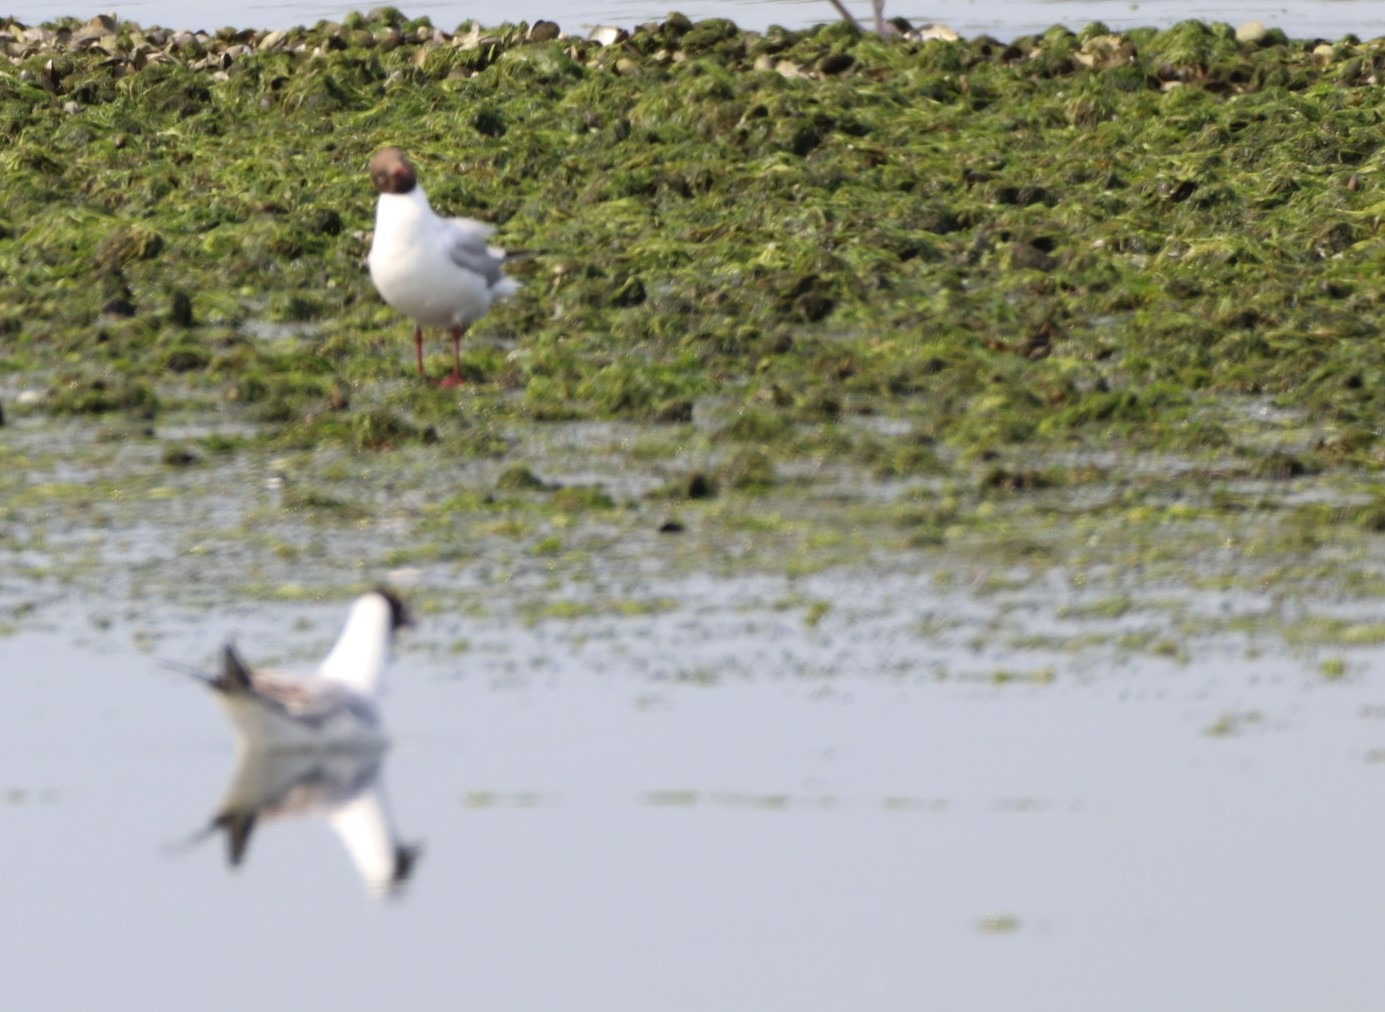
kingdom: Animalia
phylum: Chordata
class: Aves
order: Charadriiformes
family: Laridae
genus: Chroicocephalus
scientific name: Chroicocephalus ridibundus
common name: Hættemåge
